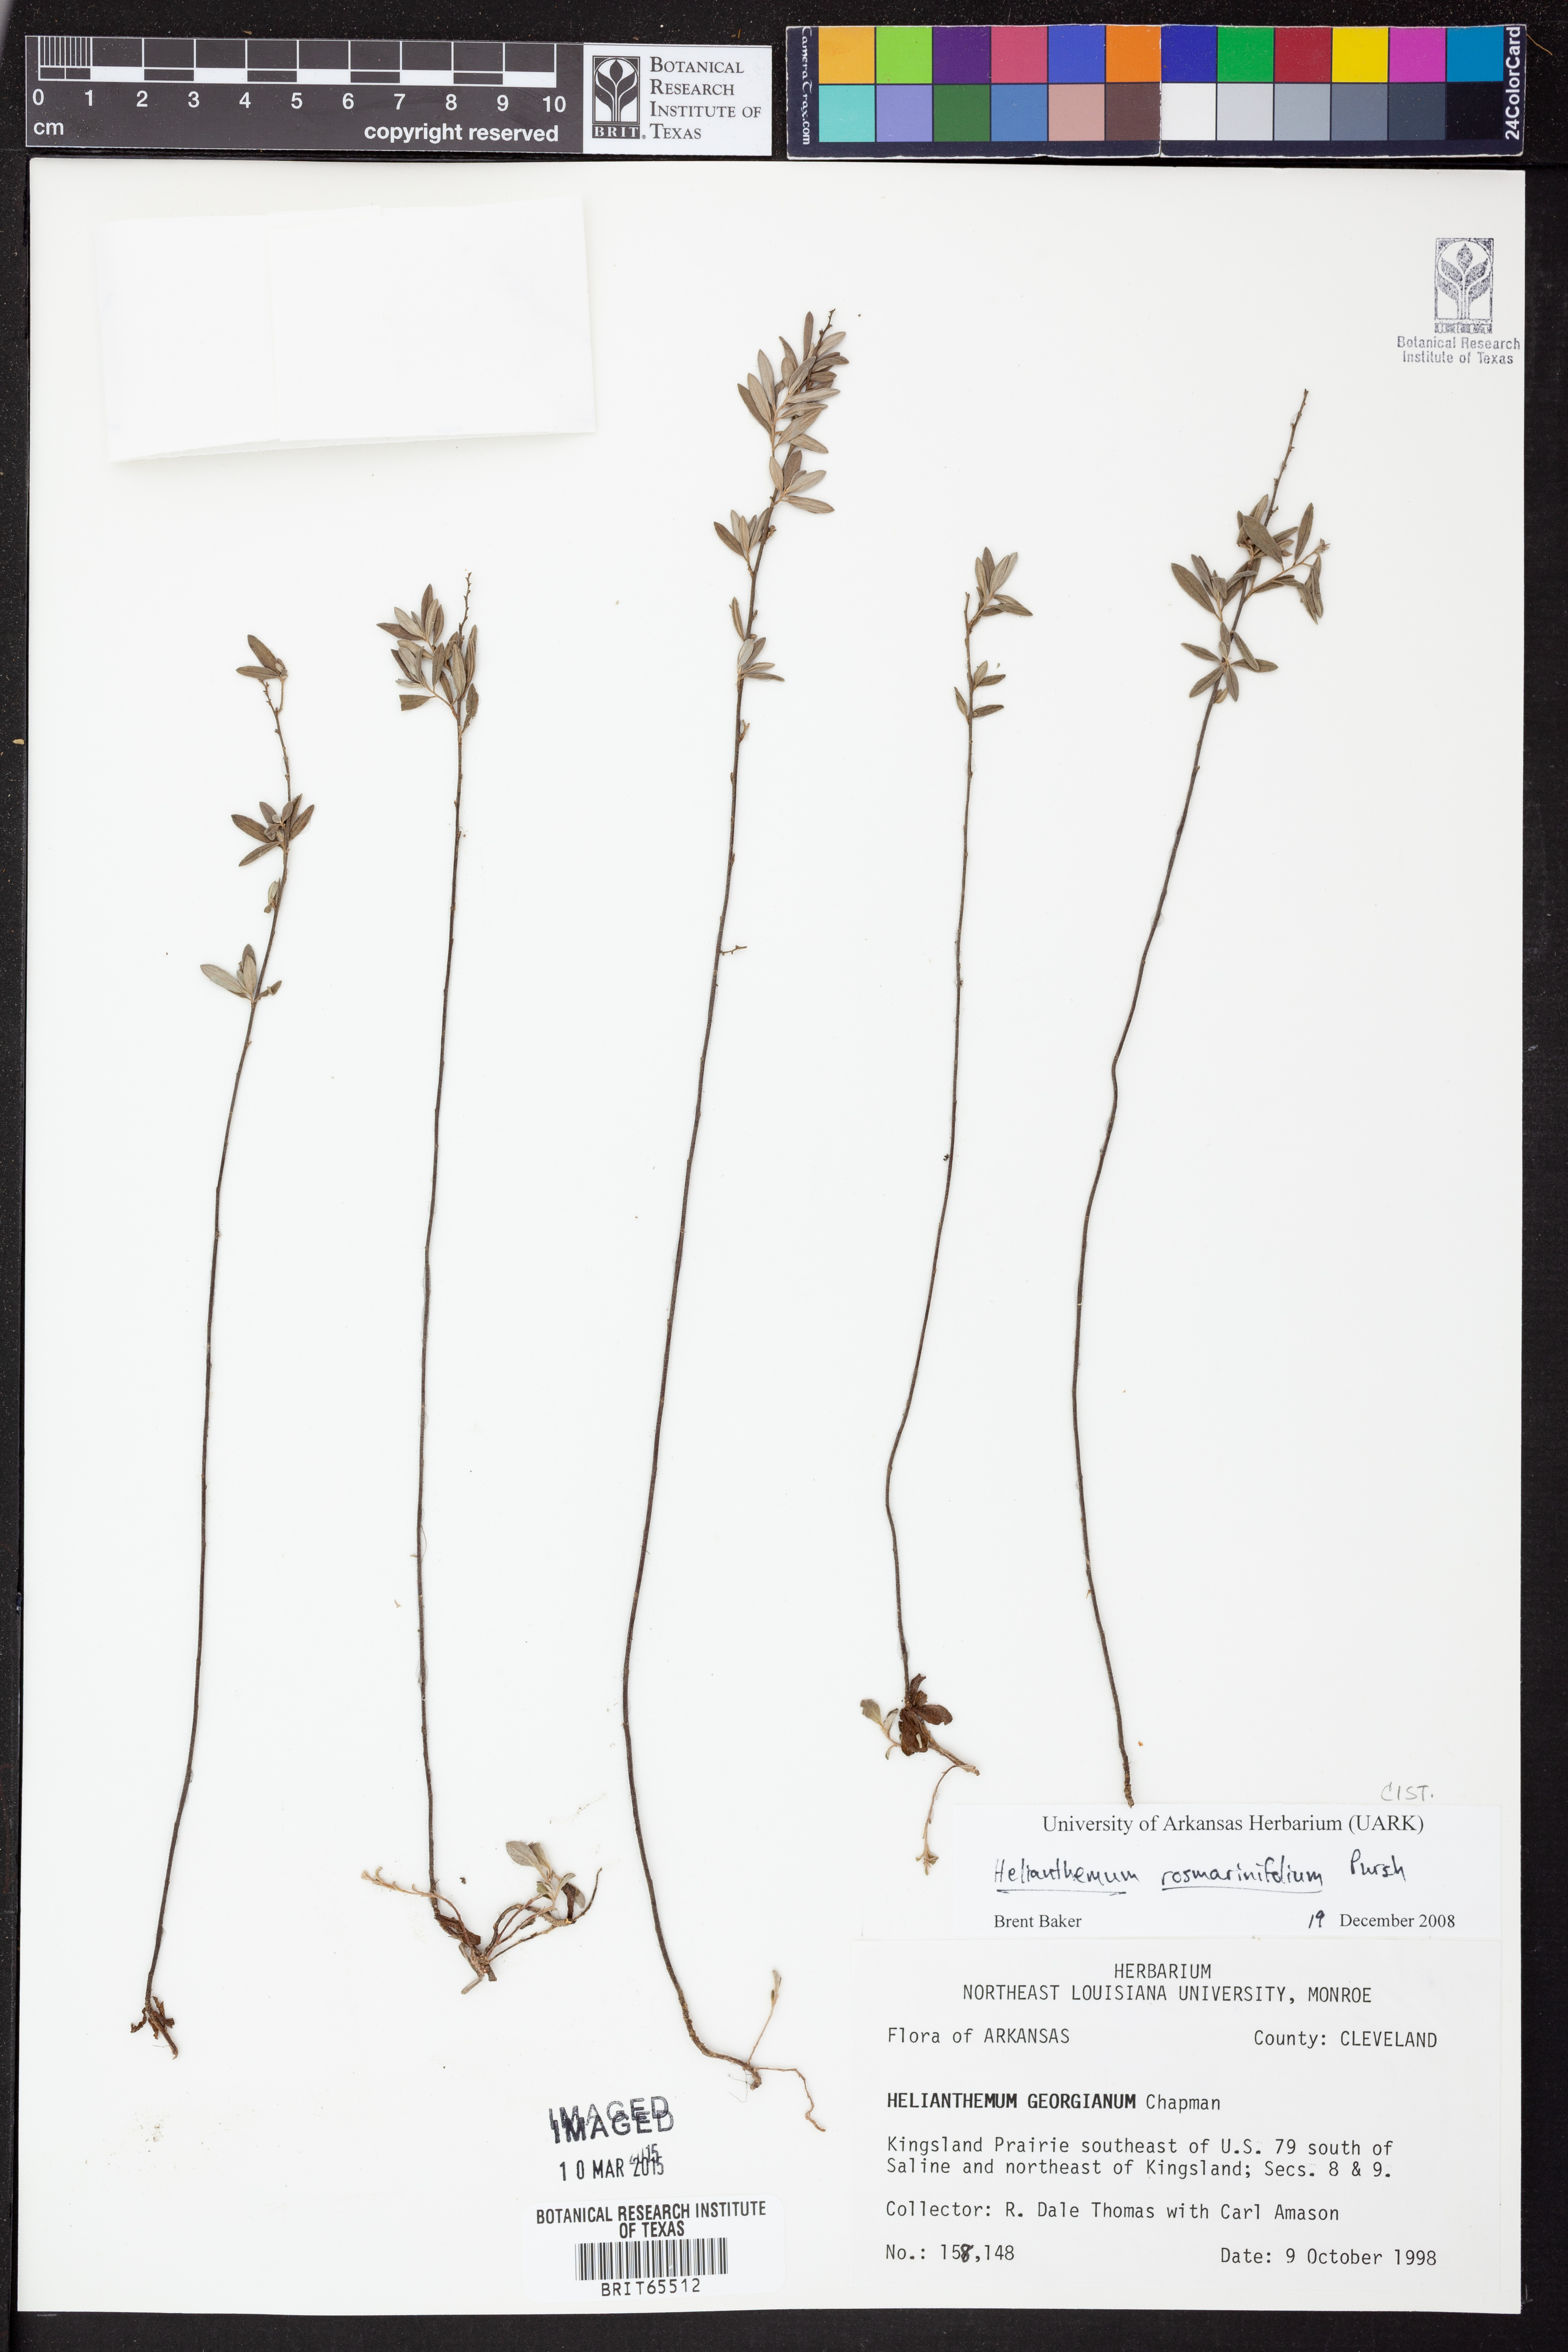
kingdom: Plantae
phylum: Tracheophyta
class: Magnoliopsida
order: Malvales
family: Cistaceae
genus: Helianthemum
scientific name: Helianthemum
